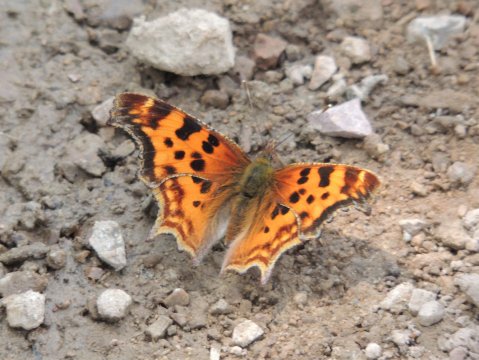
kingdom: Animalia
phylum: Arthropoda
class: Insecta
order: Lepidoptera
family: Nymphalidae
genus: Polygonia
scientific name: Polygonia satyrus
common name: Satyr Comma
